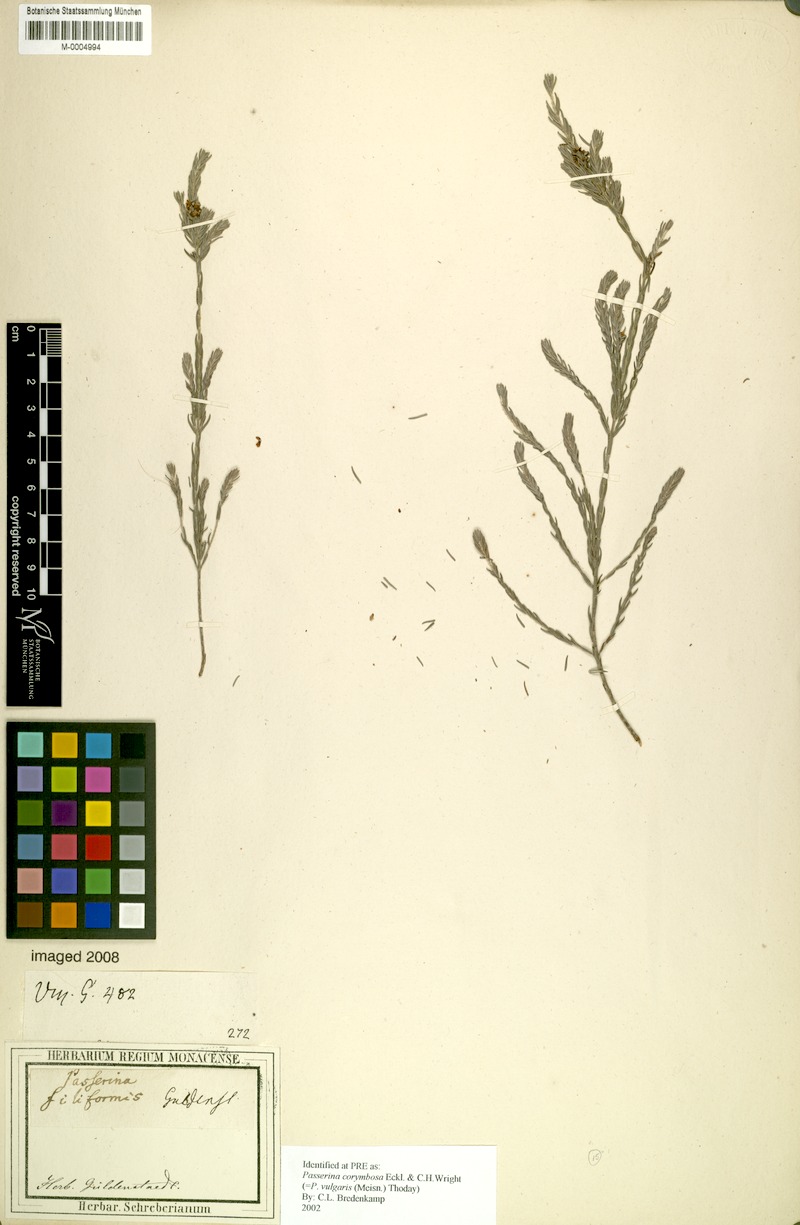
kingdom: Plantae
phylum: Tracheophyta
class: Magnoliopsida
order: Malvales
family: Thymelaeaceae
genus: Passerina
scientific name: Passerina corymbosa
